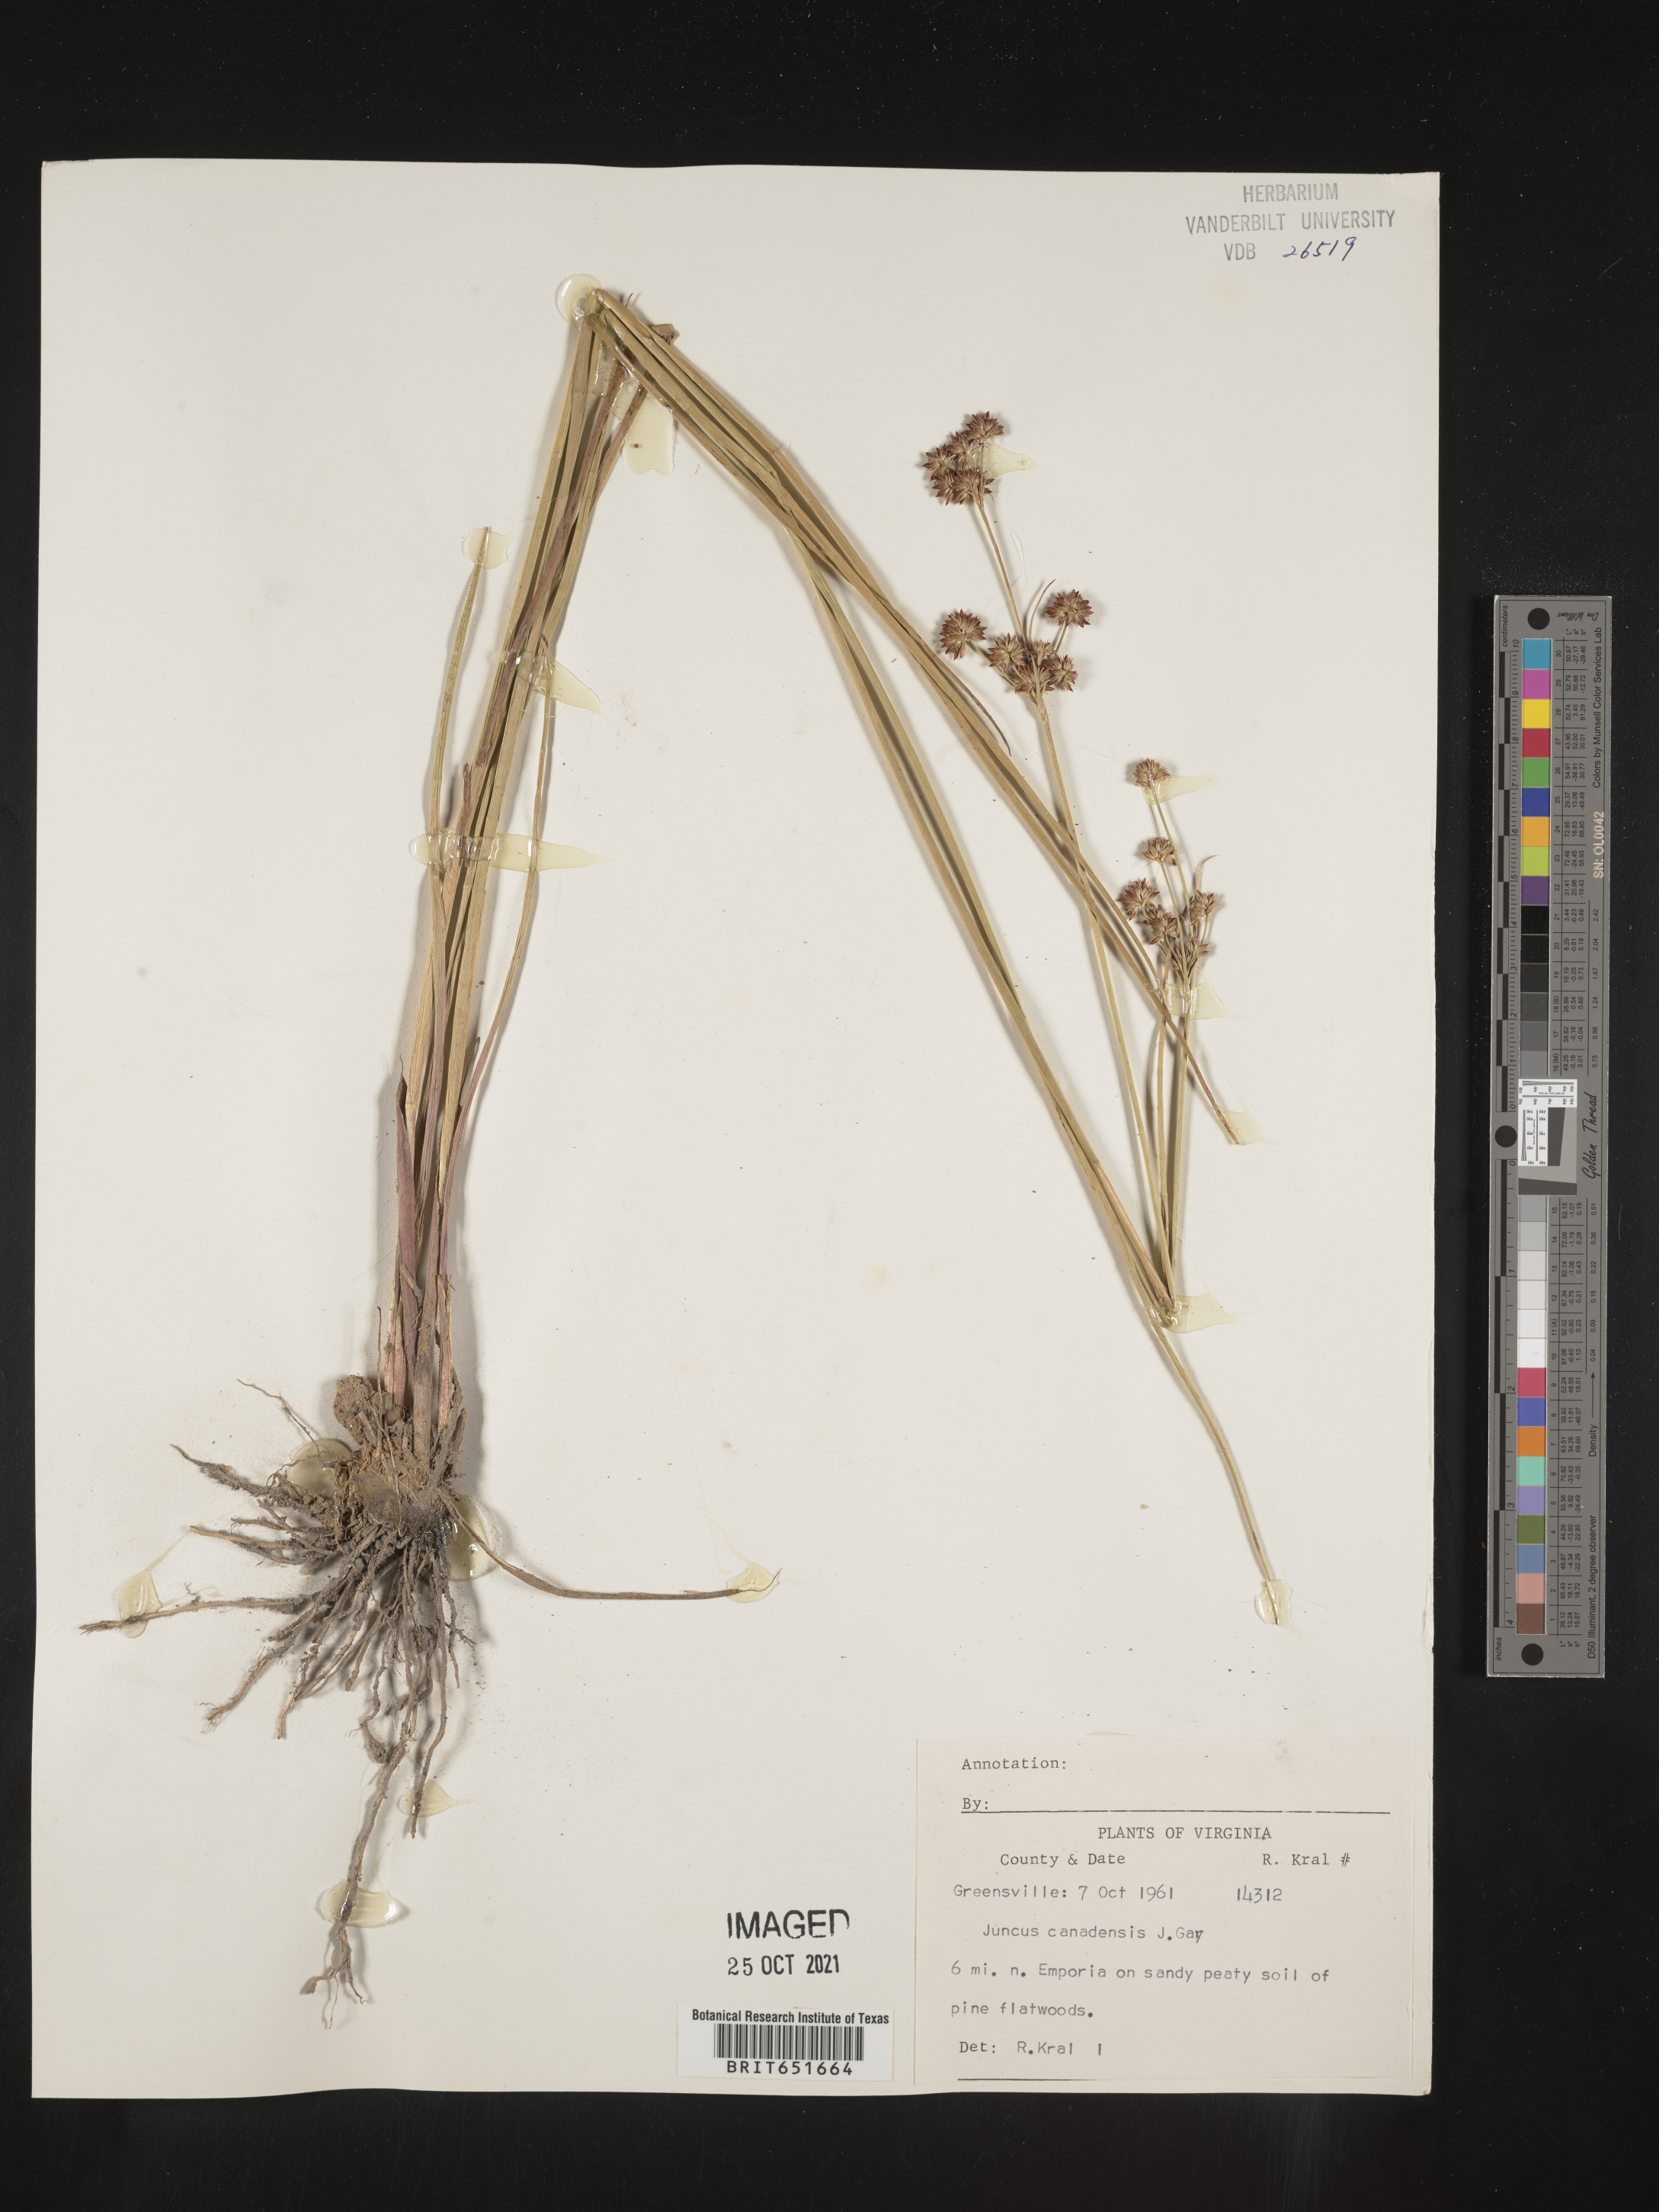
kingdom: Plantae
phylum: Tracheophyta
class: Liliopsida
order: Poales
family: Juncaceae
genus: Juncus
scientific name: Juncus canadensis
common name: Canada rush
